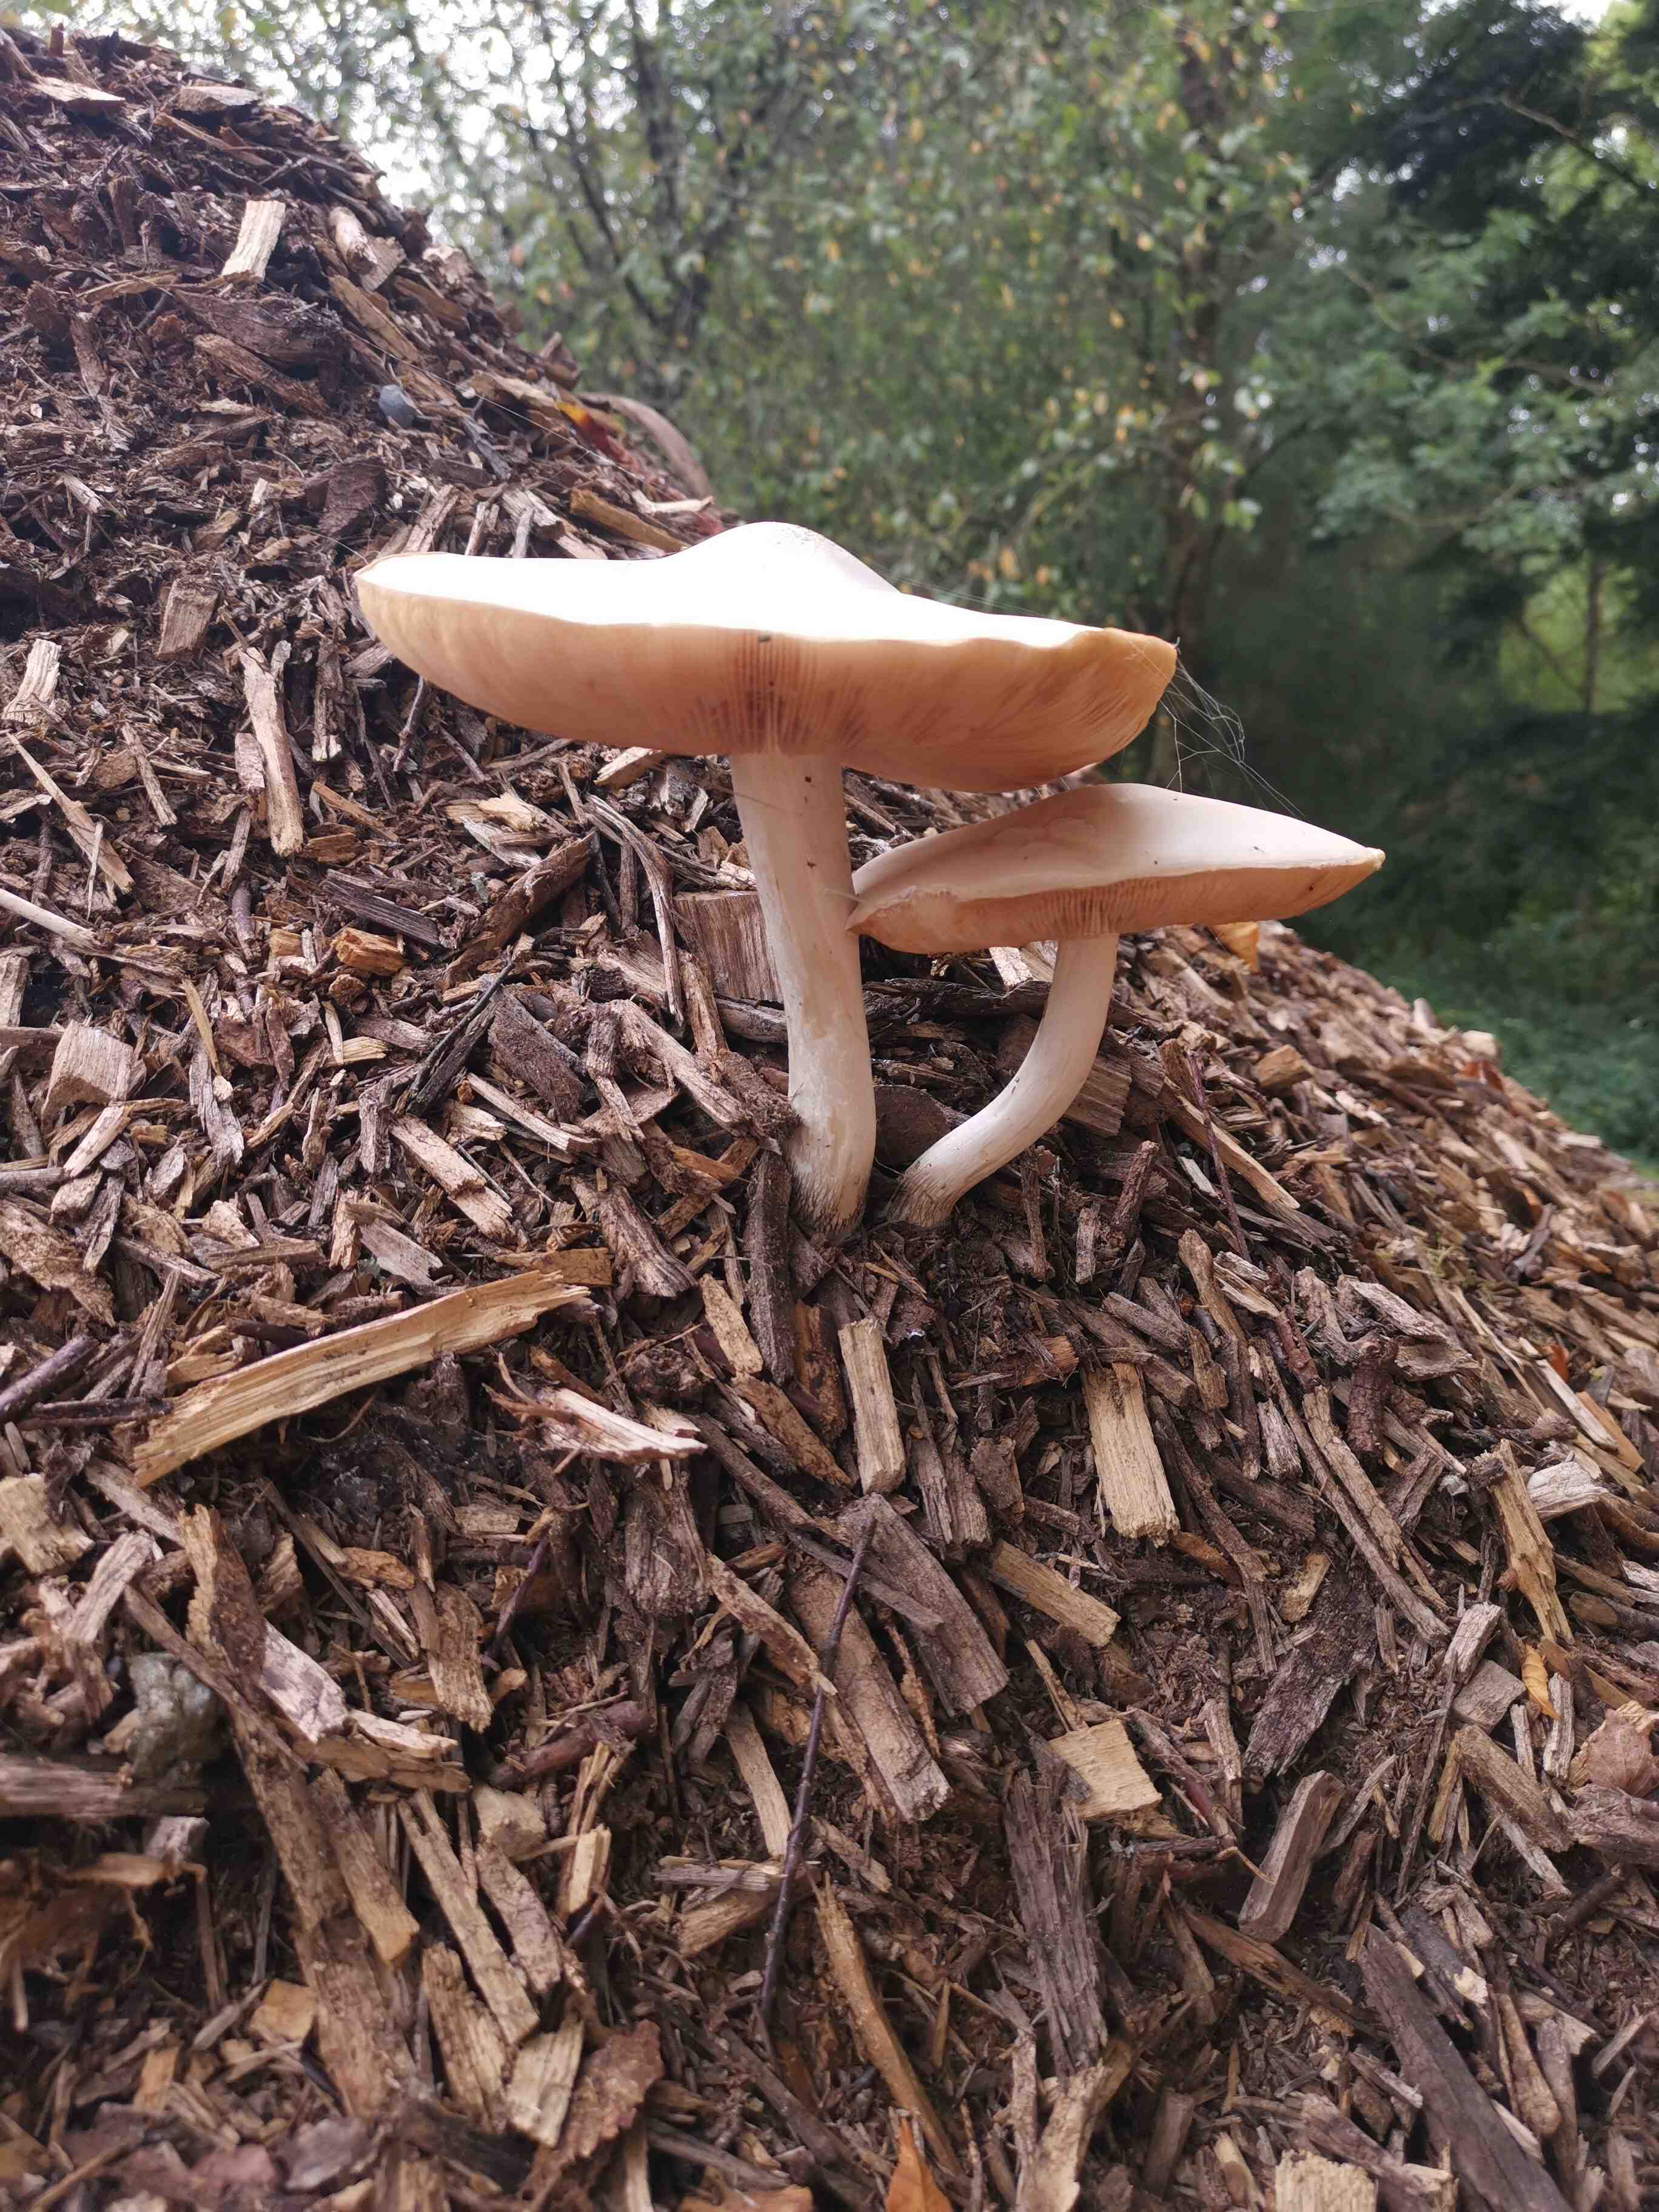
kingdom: Fungi
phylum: Basidiomycota
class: Agaricomycetes
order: Agaricales
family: Pluteaceae
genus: Pluteus
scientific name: Pluteus petasatus
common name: savsmulds-skærmhat
